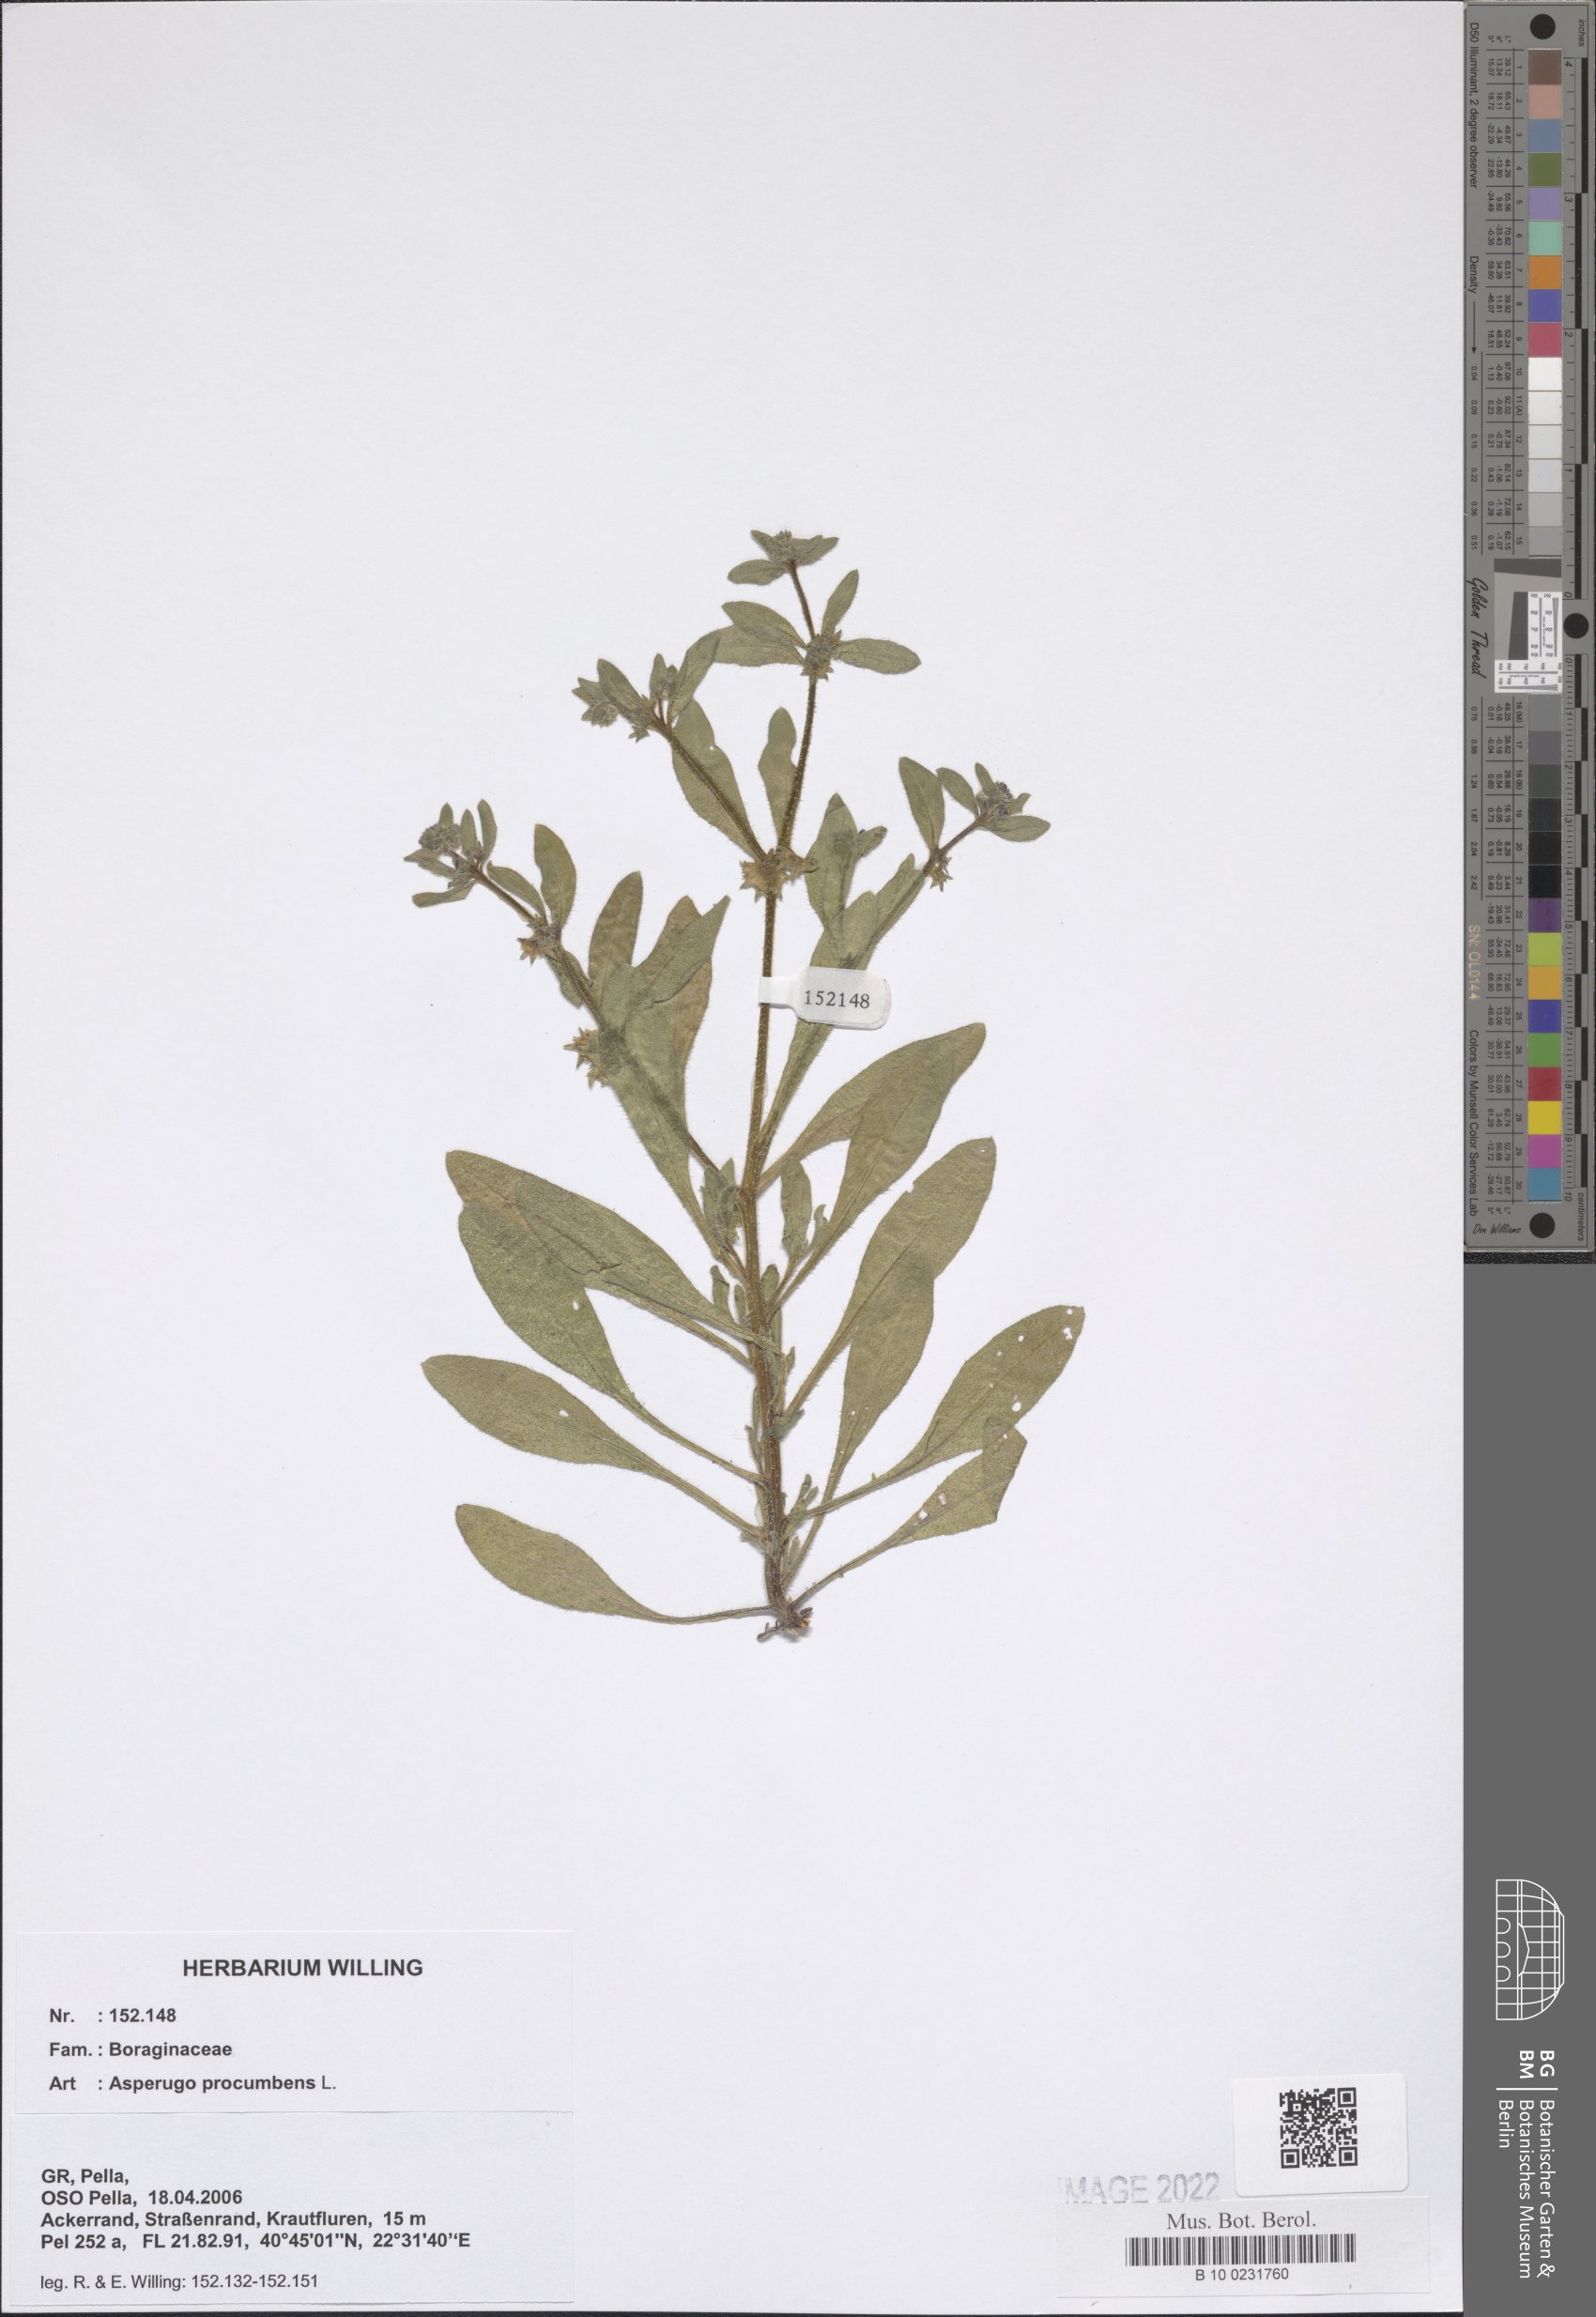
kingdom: Plantae
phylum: Tracheophyta
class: Magnoliopsida
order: Boraginales
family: Boraginaceae
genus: Asperugo
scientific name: Asperugo procumbens
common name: Madwort
